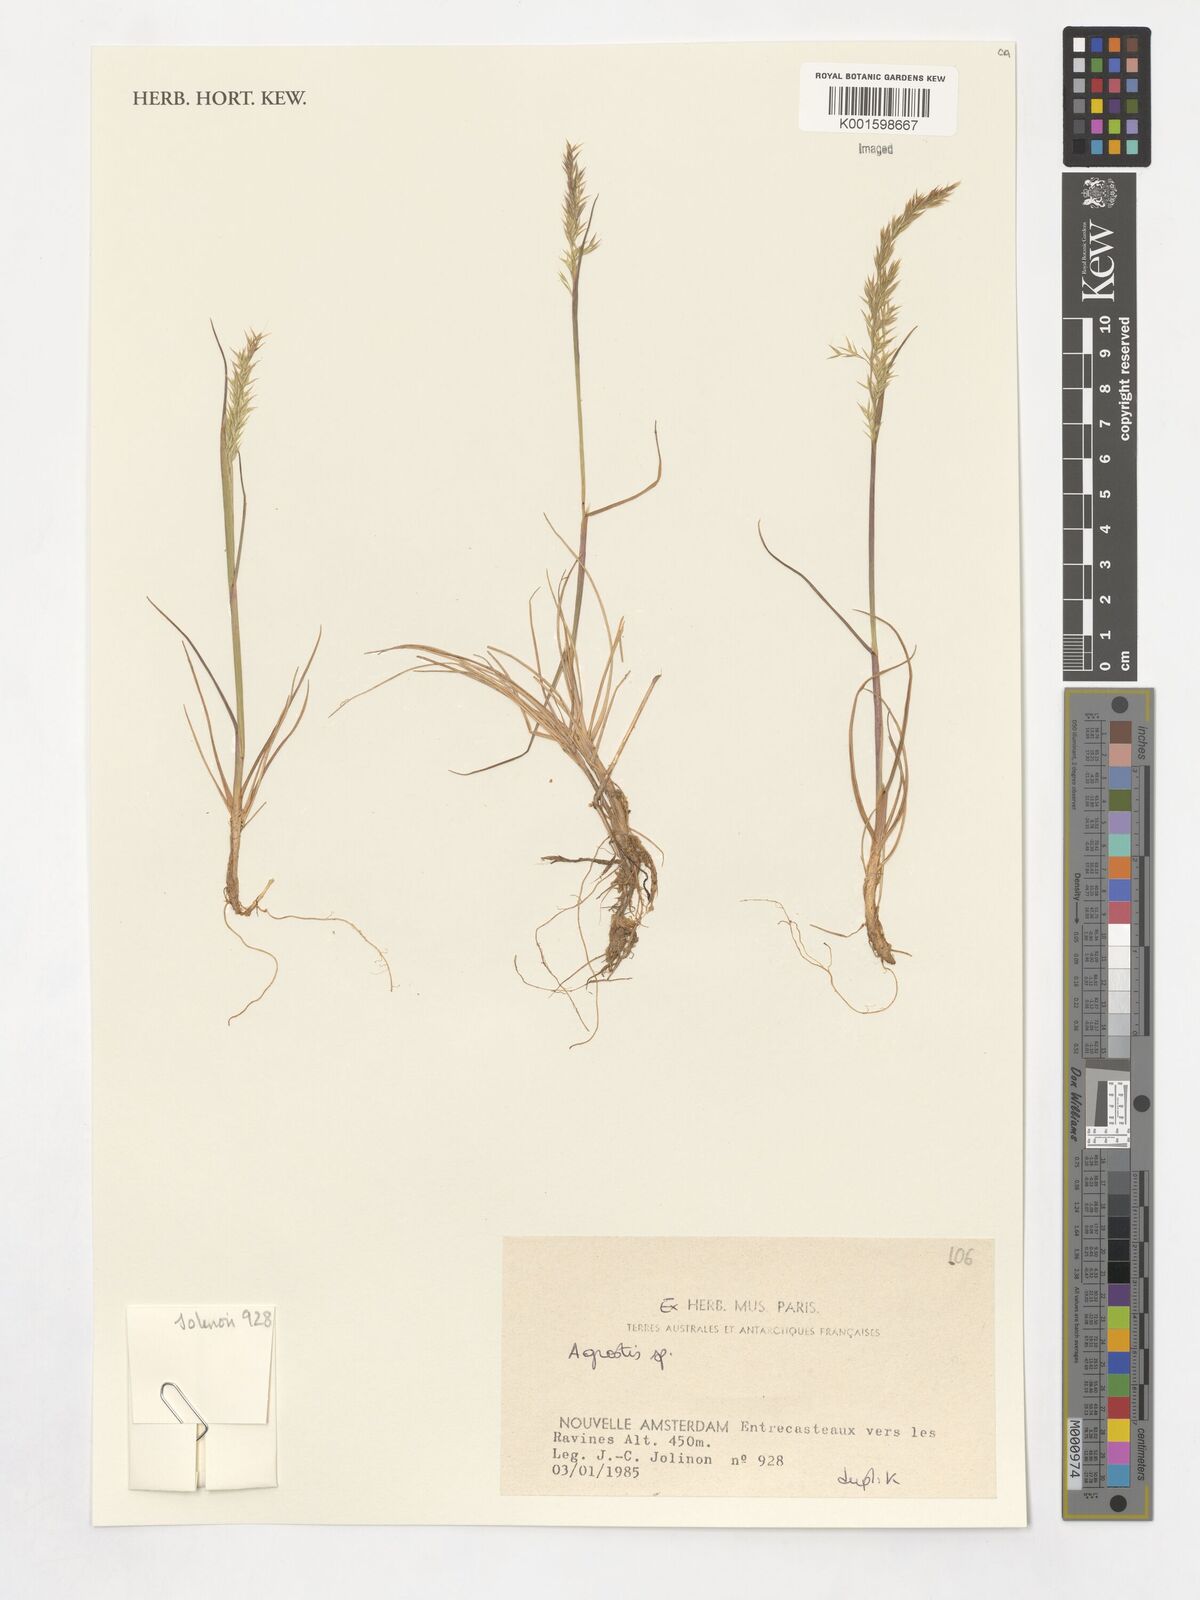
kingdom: Plantae
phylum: Tracheophyta
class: Liliopsida
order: Poales
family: Poaceae
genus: Agrostis
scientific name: Agrostis
